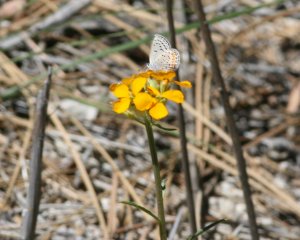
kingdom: Animalia
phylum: Arthropoda
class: Insecta
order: Lepidoptera
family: Lycaenidae
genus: Plebejus
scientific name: Plebejus acmon
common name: Acmon Blue
